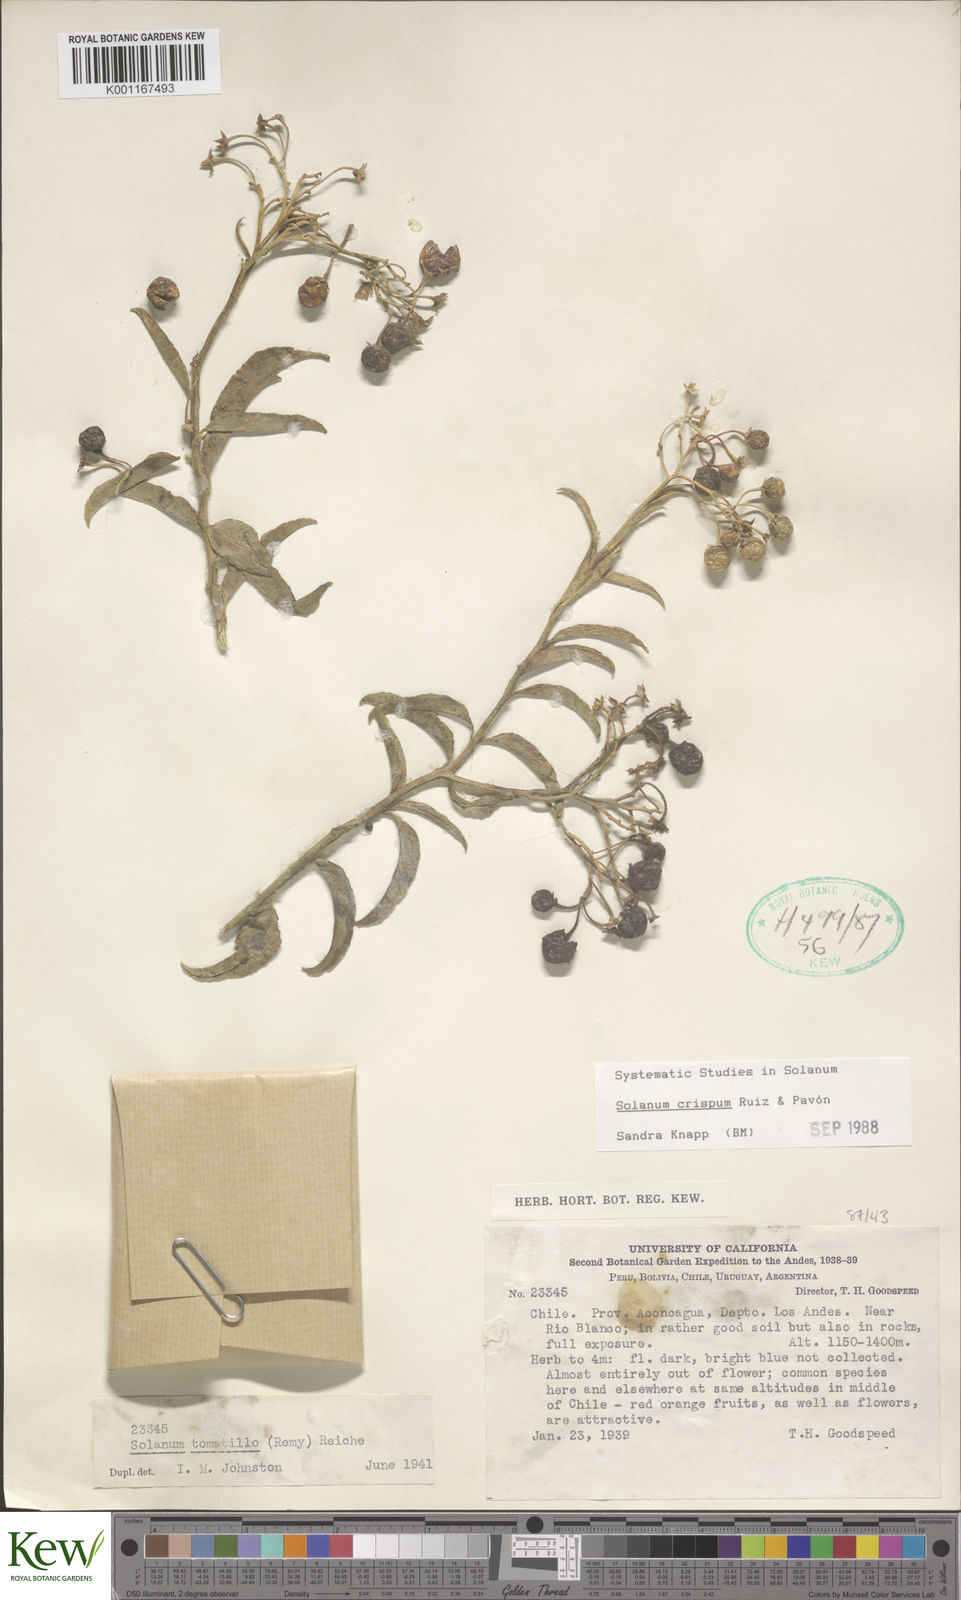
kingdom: Plantae
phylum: Tracheophyta
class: Magnoliopsida
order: Solanales
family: Solanaceae
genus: Solanum
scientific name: Solanum crispum
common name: Chilean nightshade
